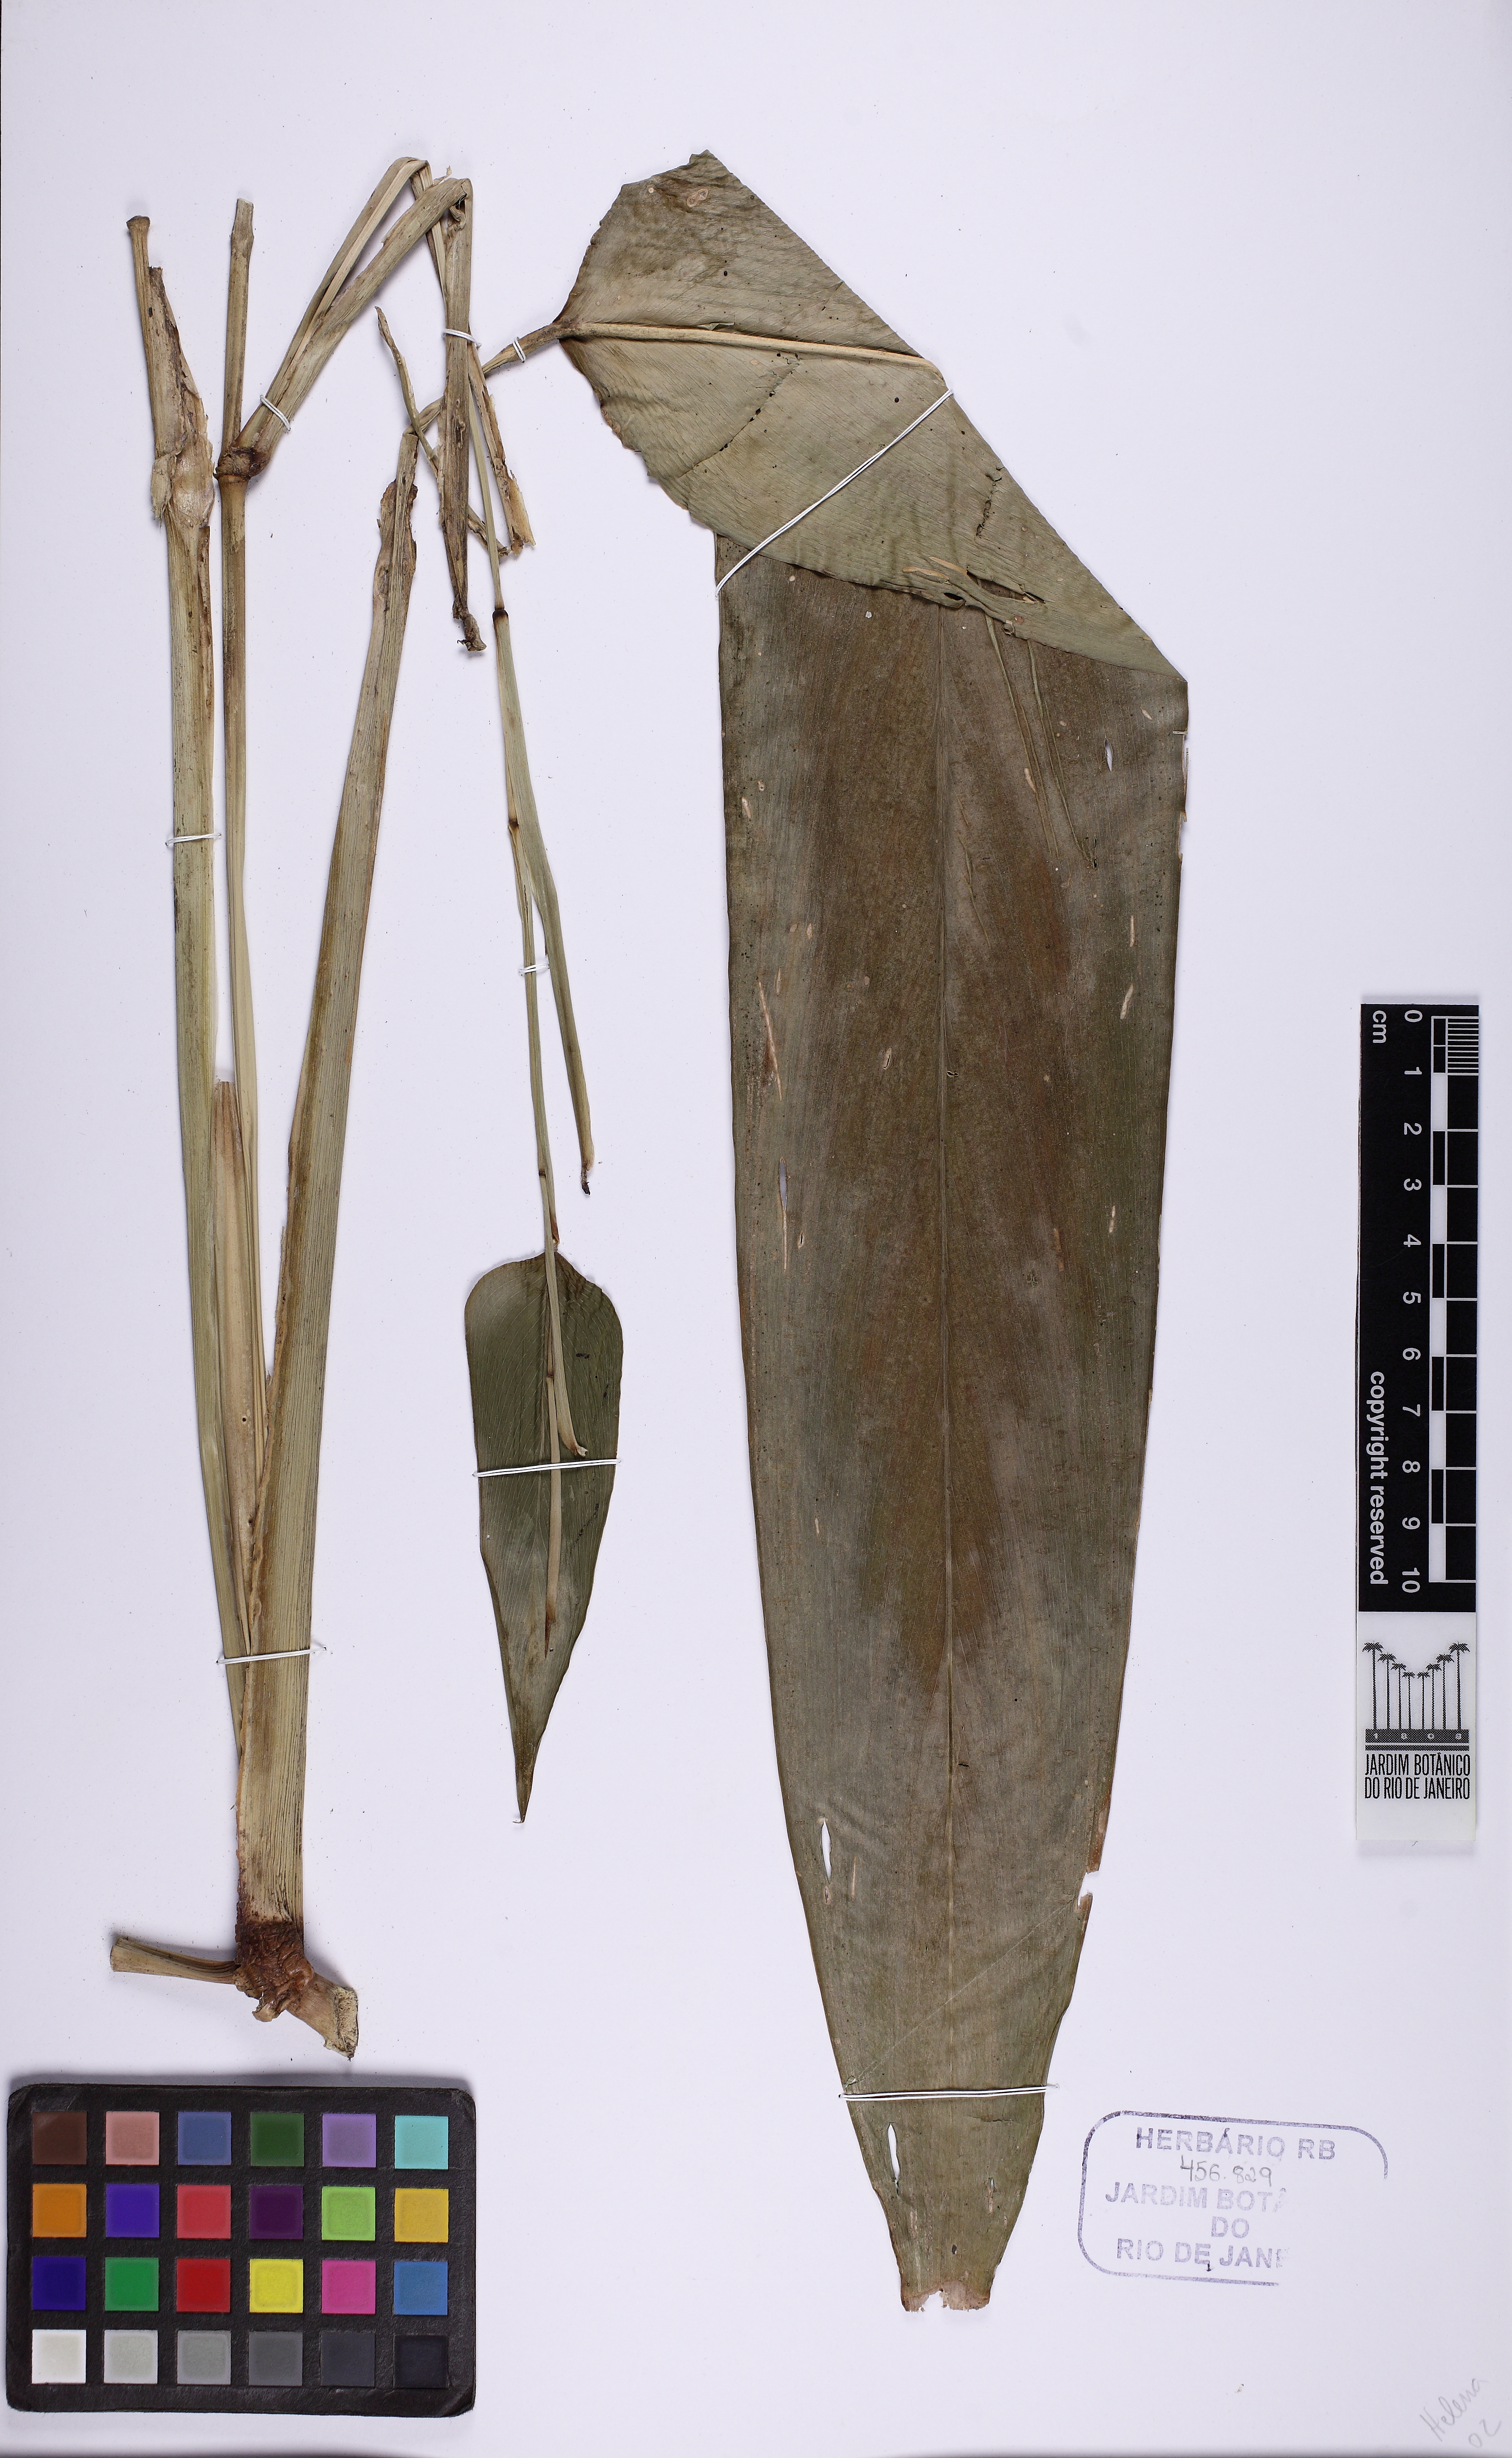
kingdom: Plantae
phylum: Tracheophyta
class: Liliopsida
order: Zingiberales
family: Marantaceae
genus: Maranta
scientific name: Maranta divaricata
